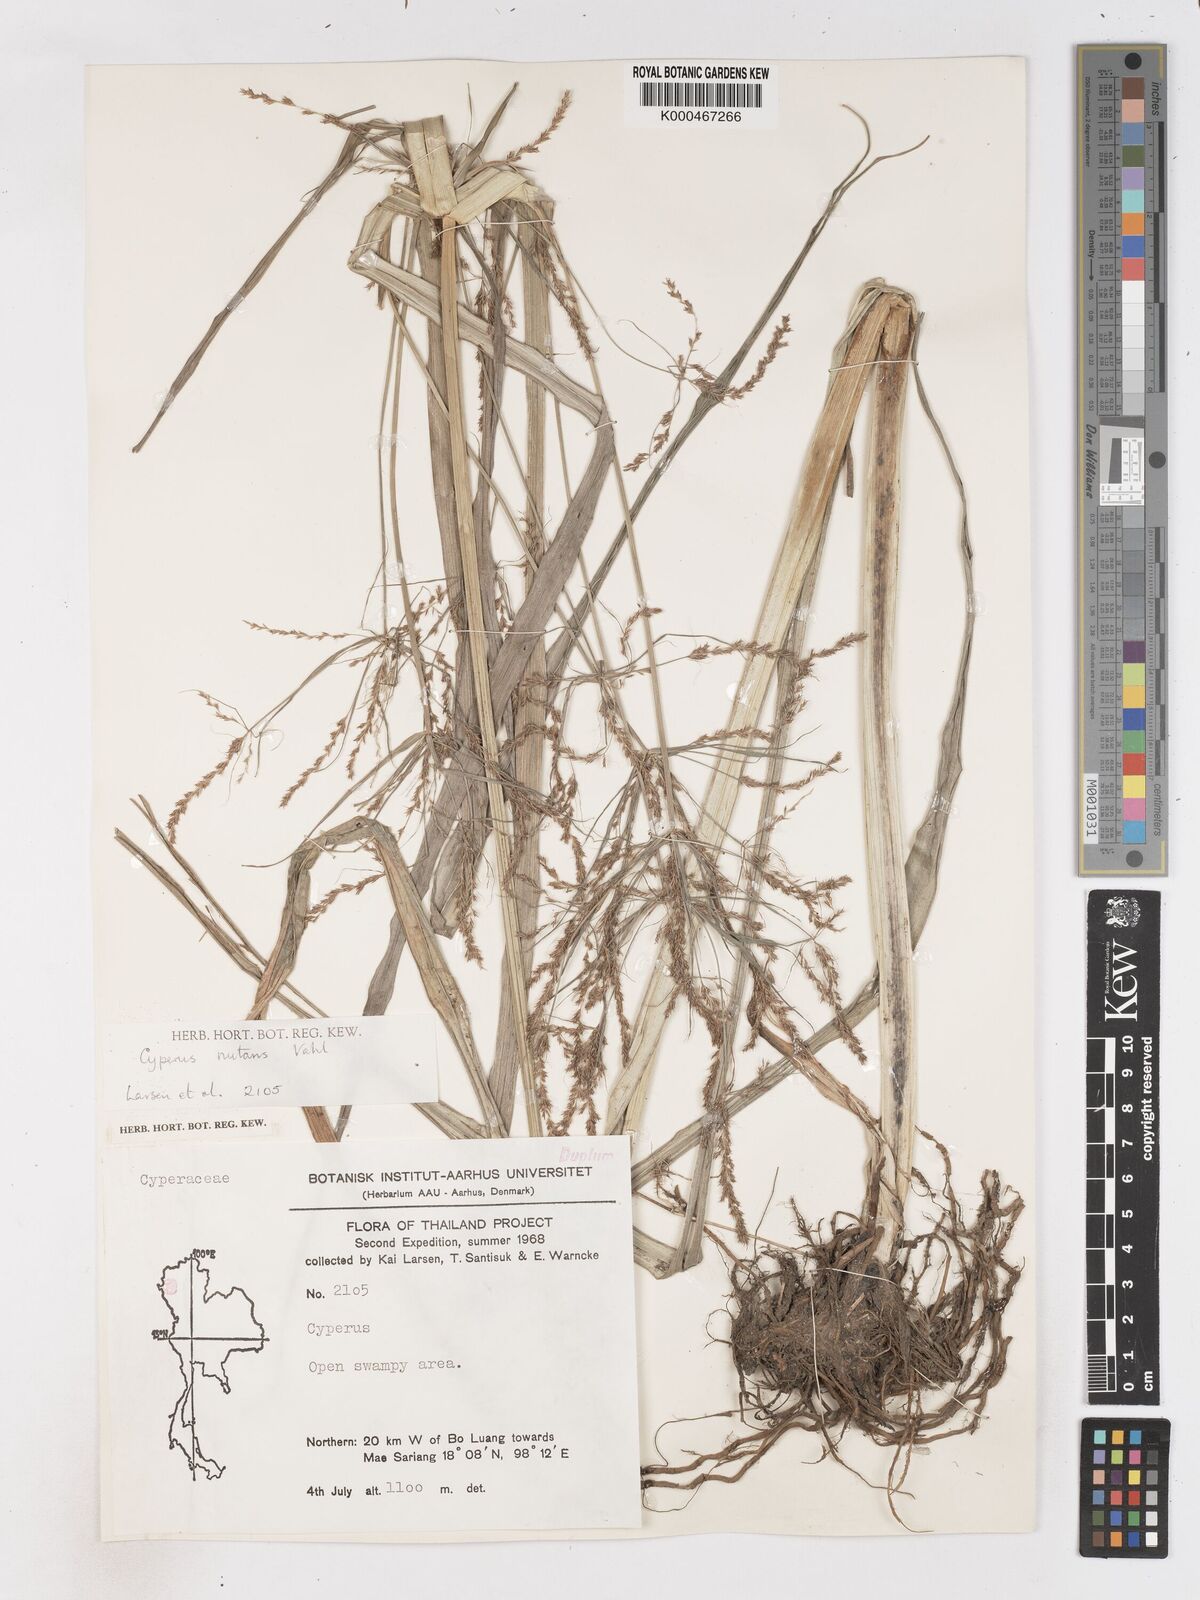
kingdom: Plantae
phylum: Tracheophyta
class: Liliopsida
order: Poales
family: Cyperaceae
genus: Cyperus
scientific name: Cyperus nutans
